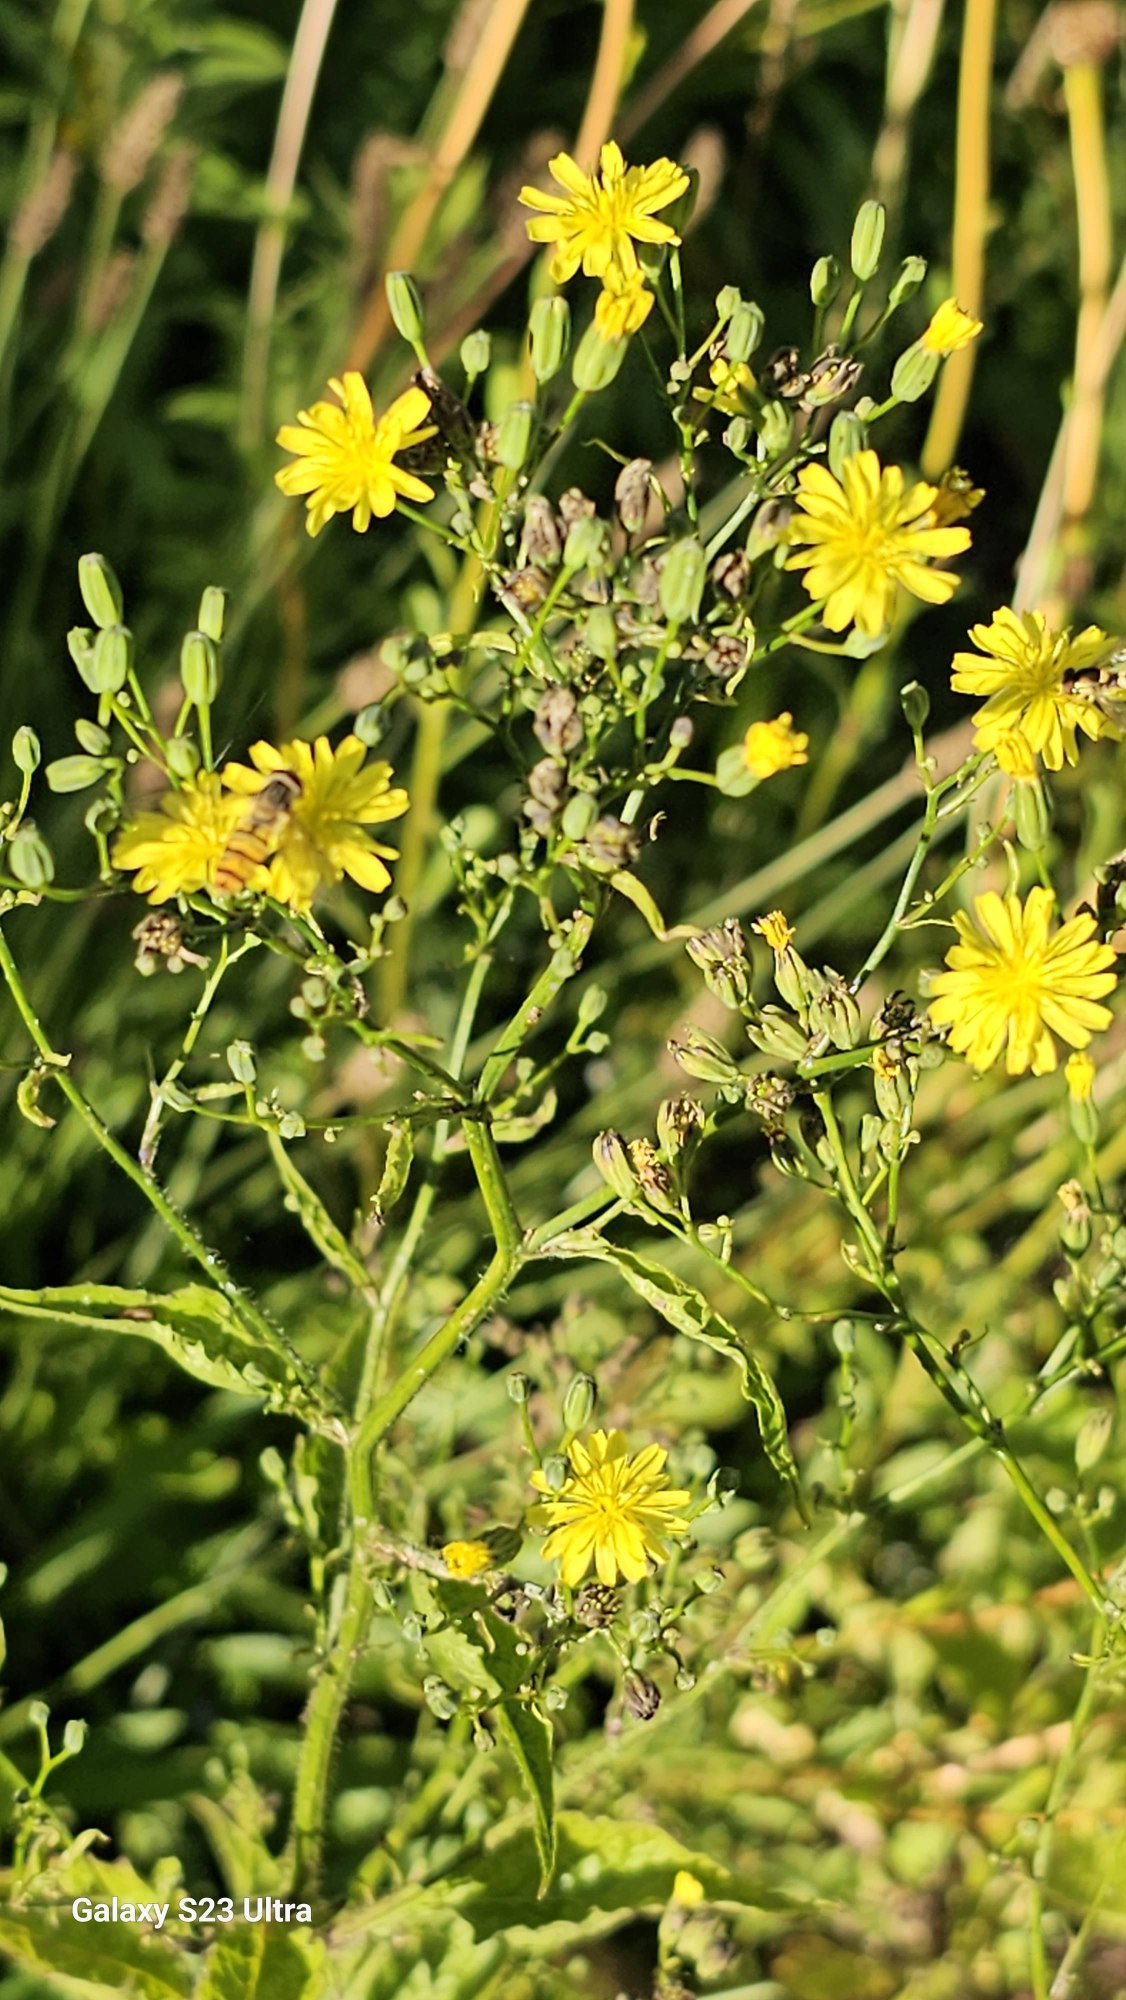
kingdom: Plantae
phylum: Tracheophyta
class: Magnoliopsida
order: Asterales
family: Asteraceae
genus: Lapsana
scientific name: Lapsana communis
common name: Haremad
